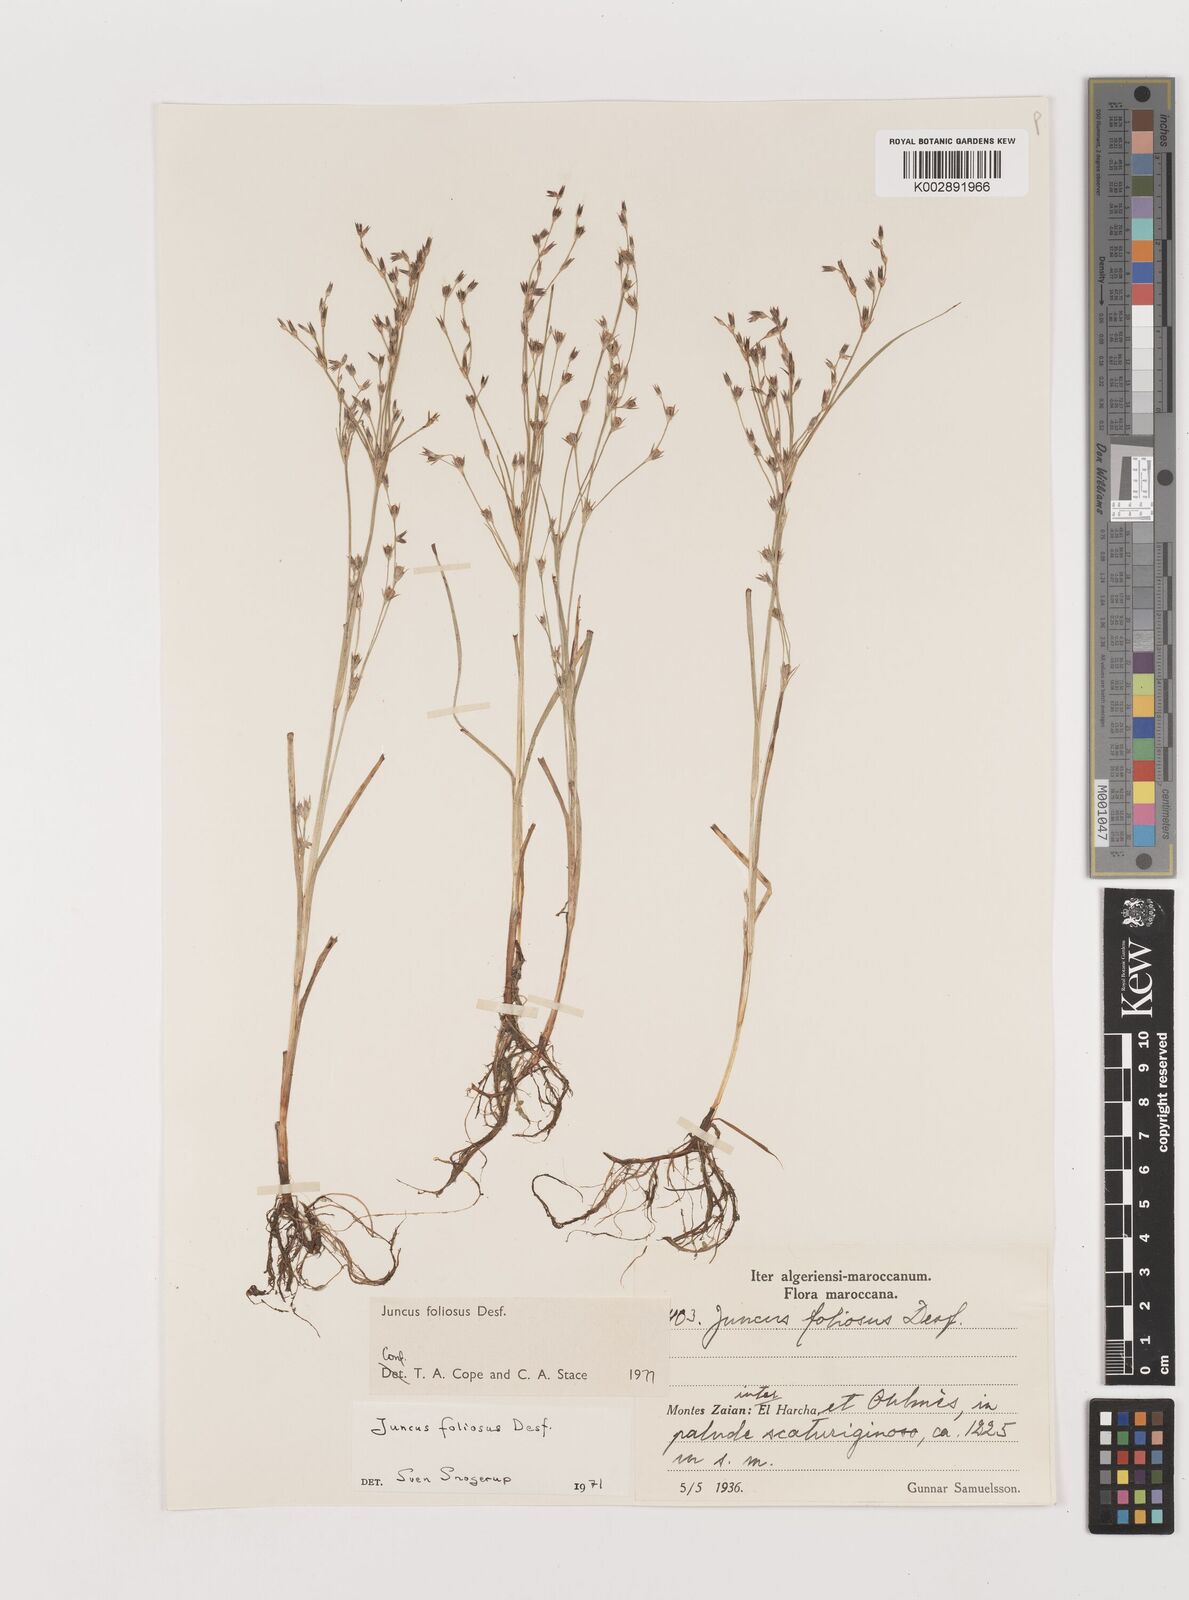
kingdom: Plantae
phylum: Tracheophyta
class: Liliopsida
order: Poales
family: Juncaceae
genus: Juncus
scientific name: Juncus acutiflorus
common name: Sharp-flowered rush
